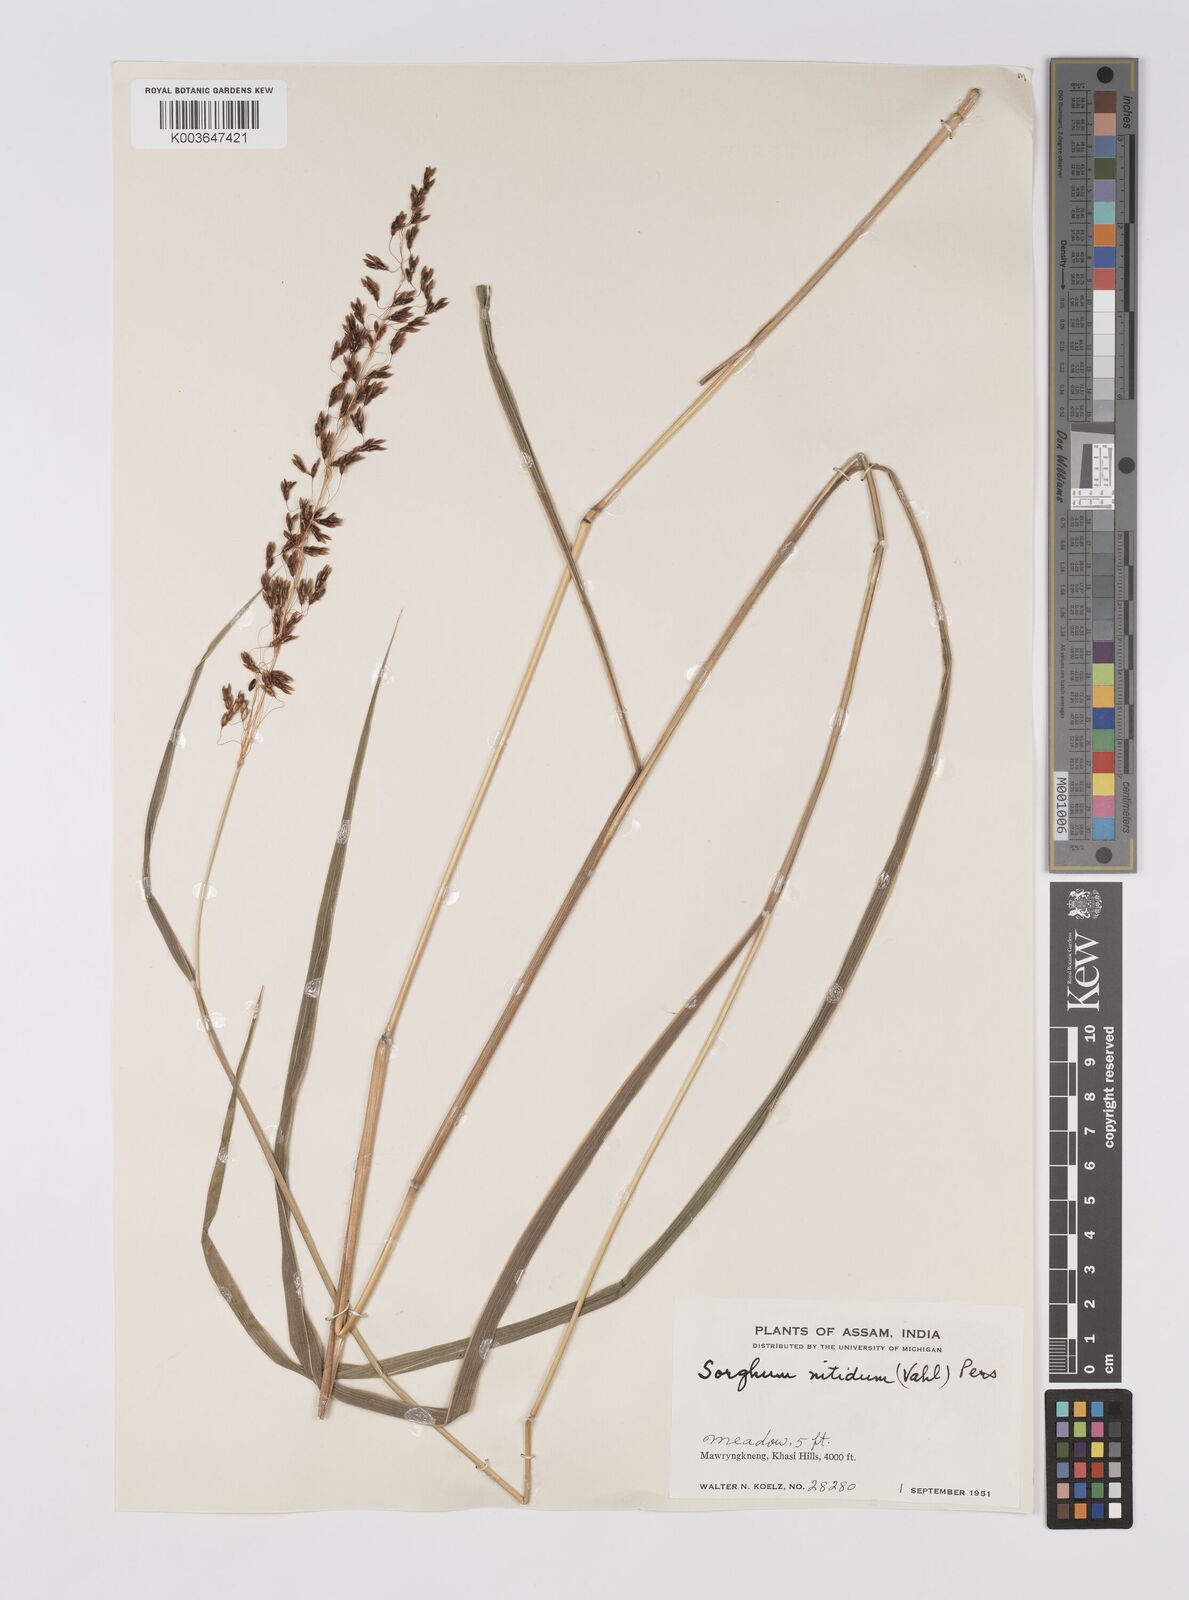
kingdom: Plantae
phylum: Tracheophyta
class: Liliopsida
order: Poales
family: Poaceae
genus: Sorghum
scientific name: Sorghum nitidum
